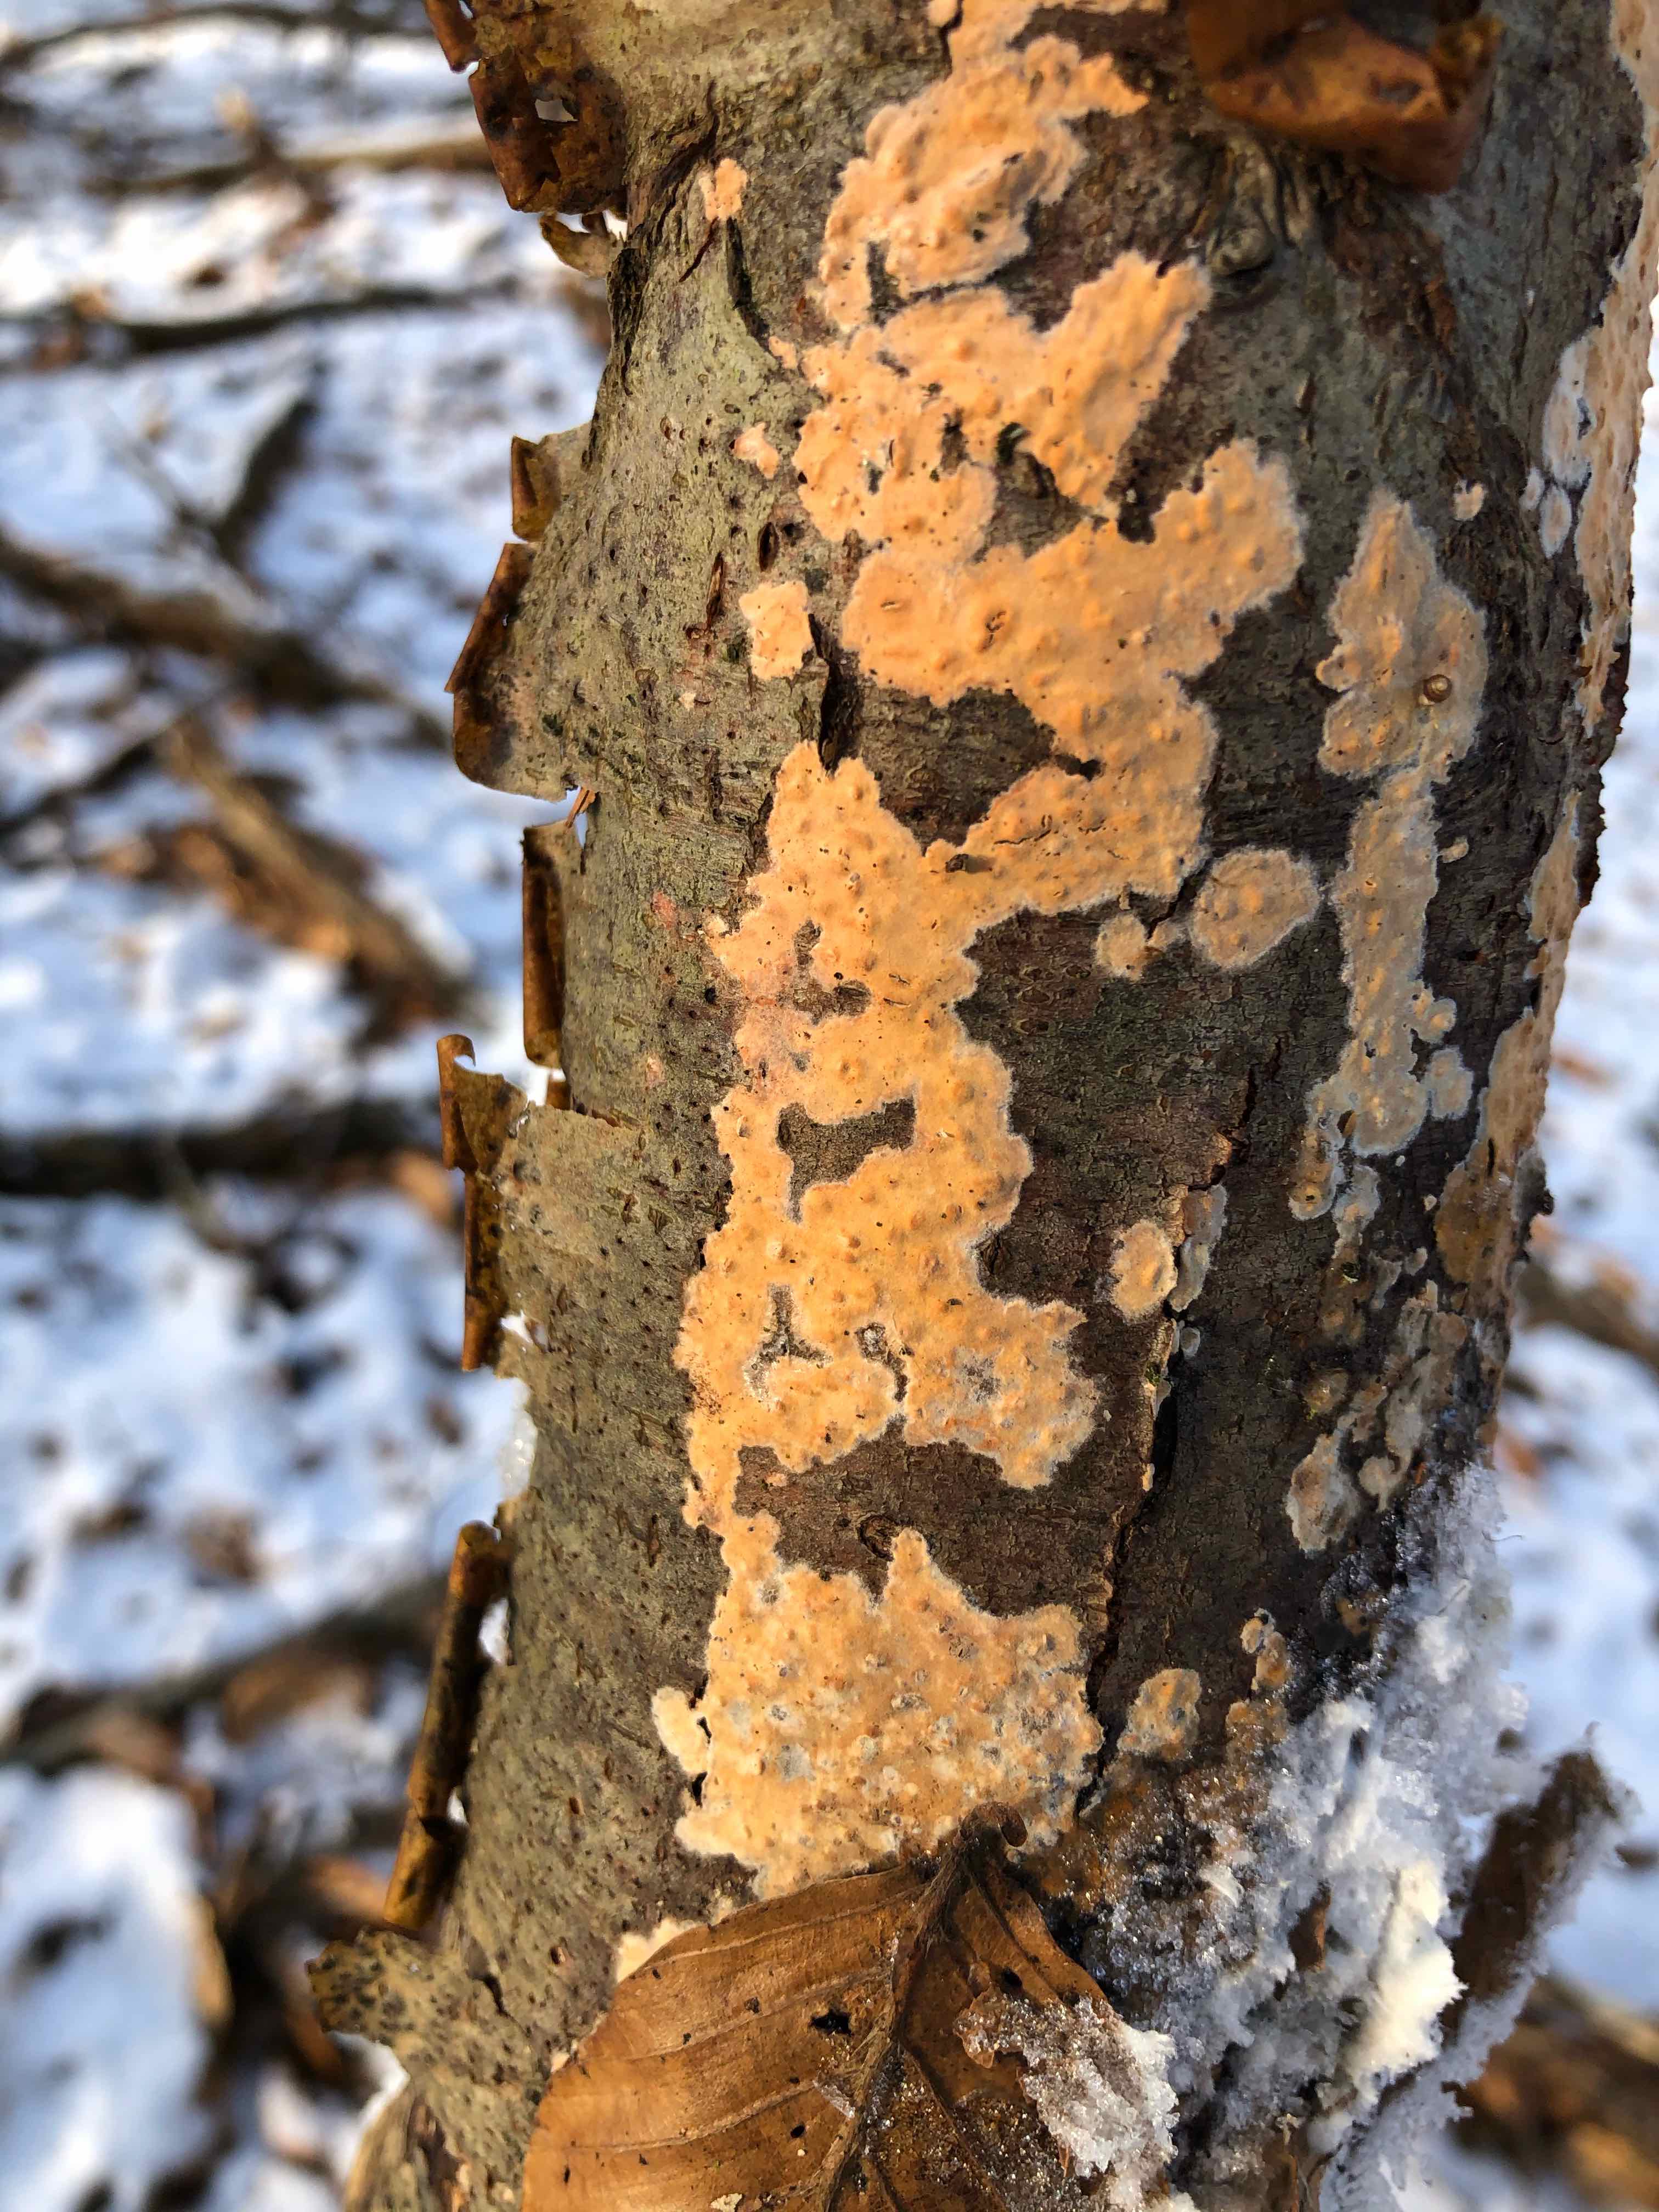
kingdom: Fungi
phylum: Basidiomycota
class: Agaricomycetes
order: Russulales
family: Peniophoraceae
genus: Peniophora
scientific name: Peniophora incarnata
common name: laksefarvet voksskind
